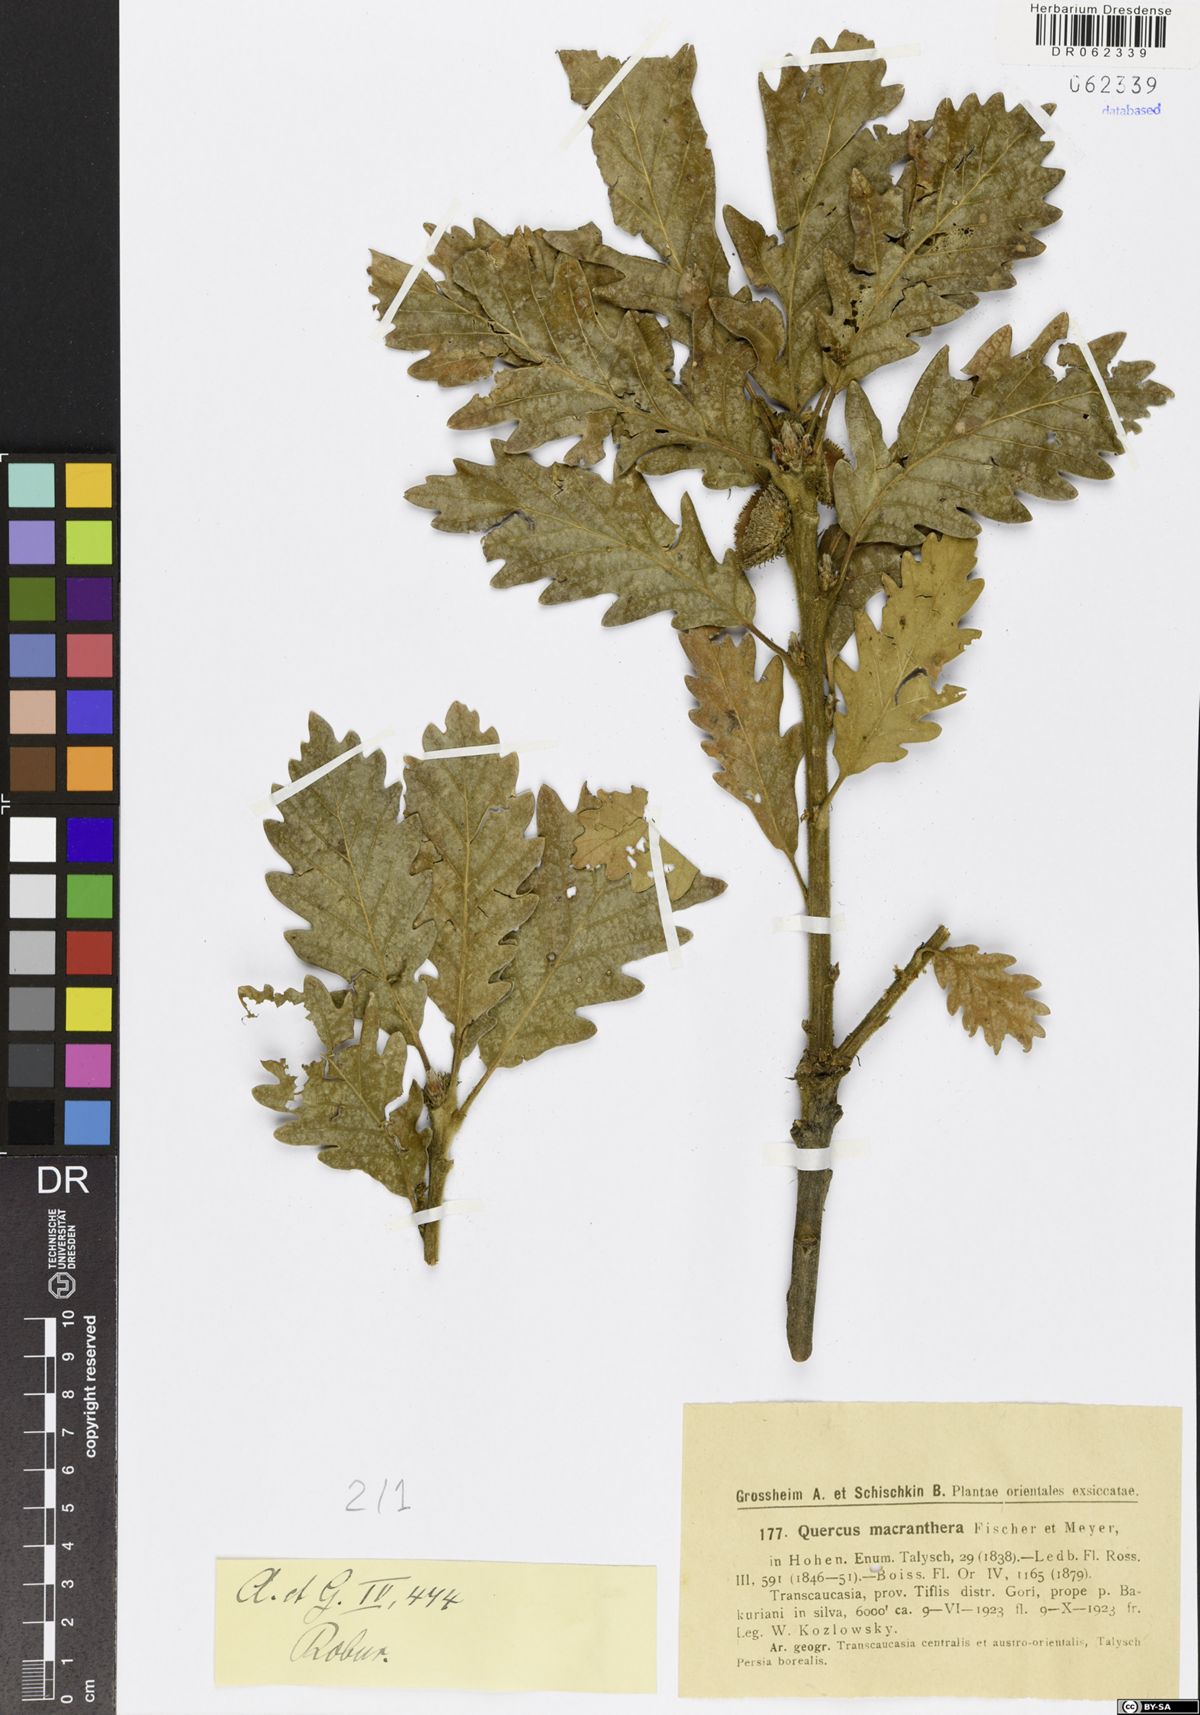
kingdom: Plantae
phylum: Tracheophyta
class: Magnoliopsida
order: Fagales
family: Fagaceae
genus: Quercus
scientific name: Quercus macranthera
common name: Caucasian oak
